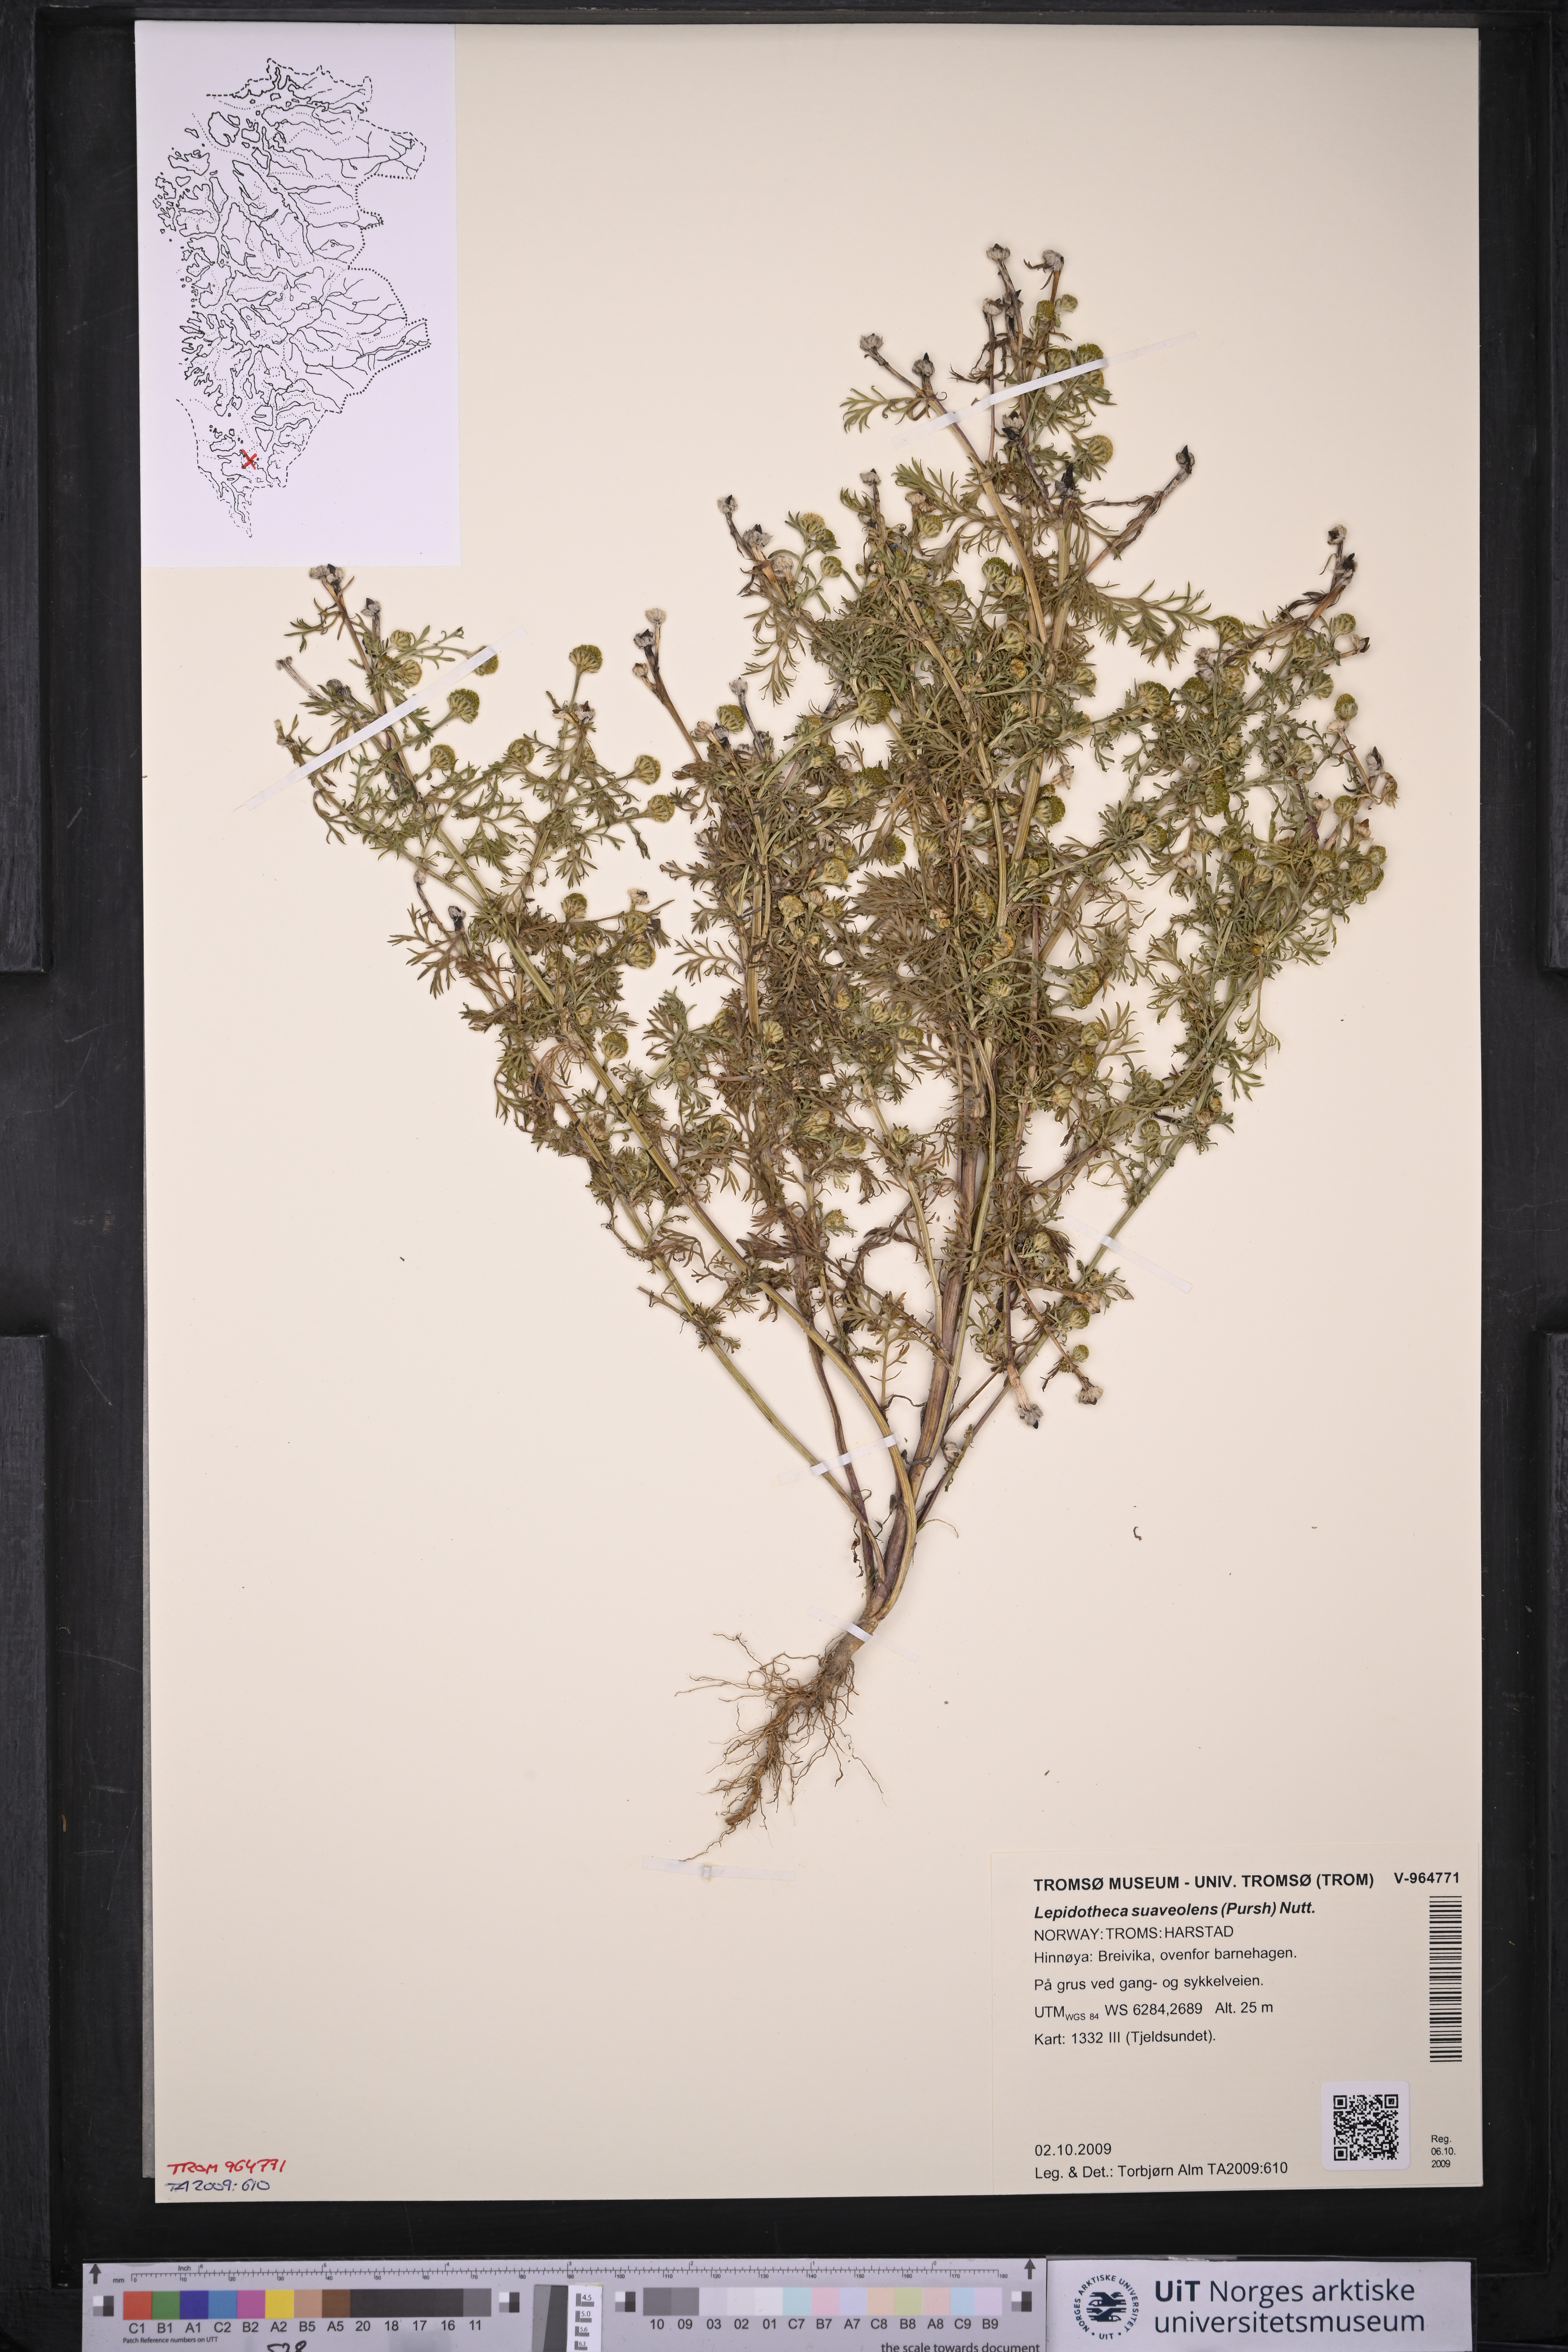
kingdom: Plantae
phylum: Tracheophyta
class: Magnoliopsida
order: Asterales
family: Asteraceae
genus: Matricaria
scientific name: Matricaria discoidea
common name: Disc mayweed
